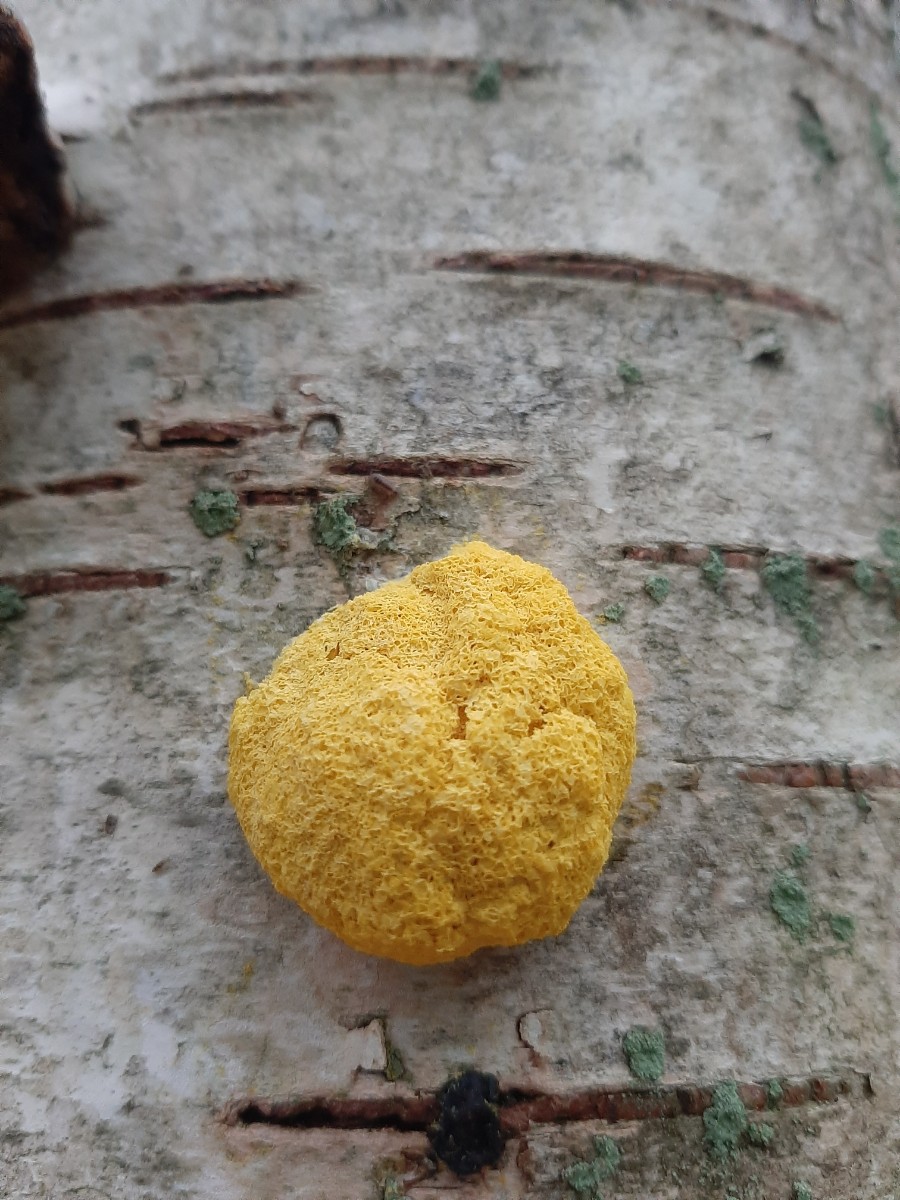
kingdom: Protozoa
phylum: Mycetozoa
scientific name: Mycetozoa
